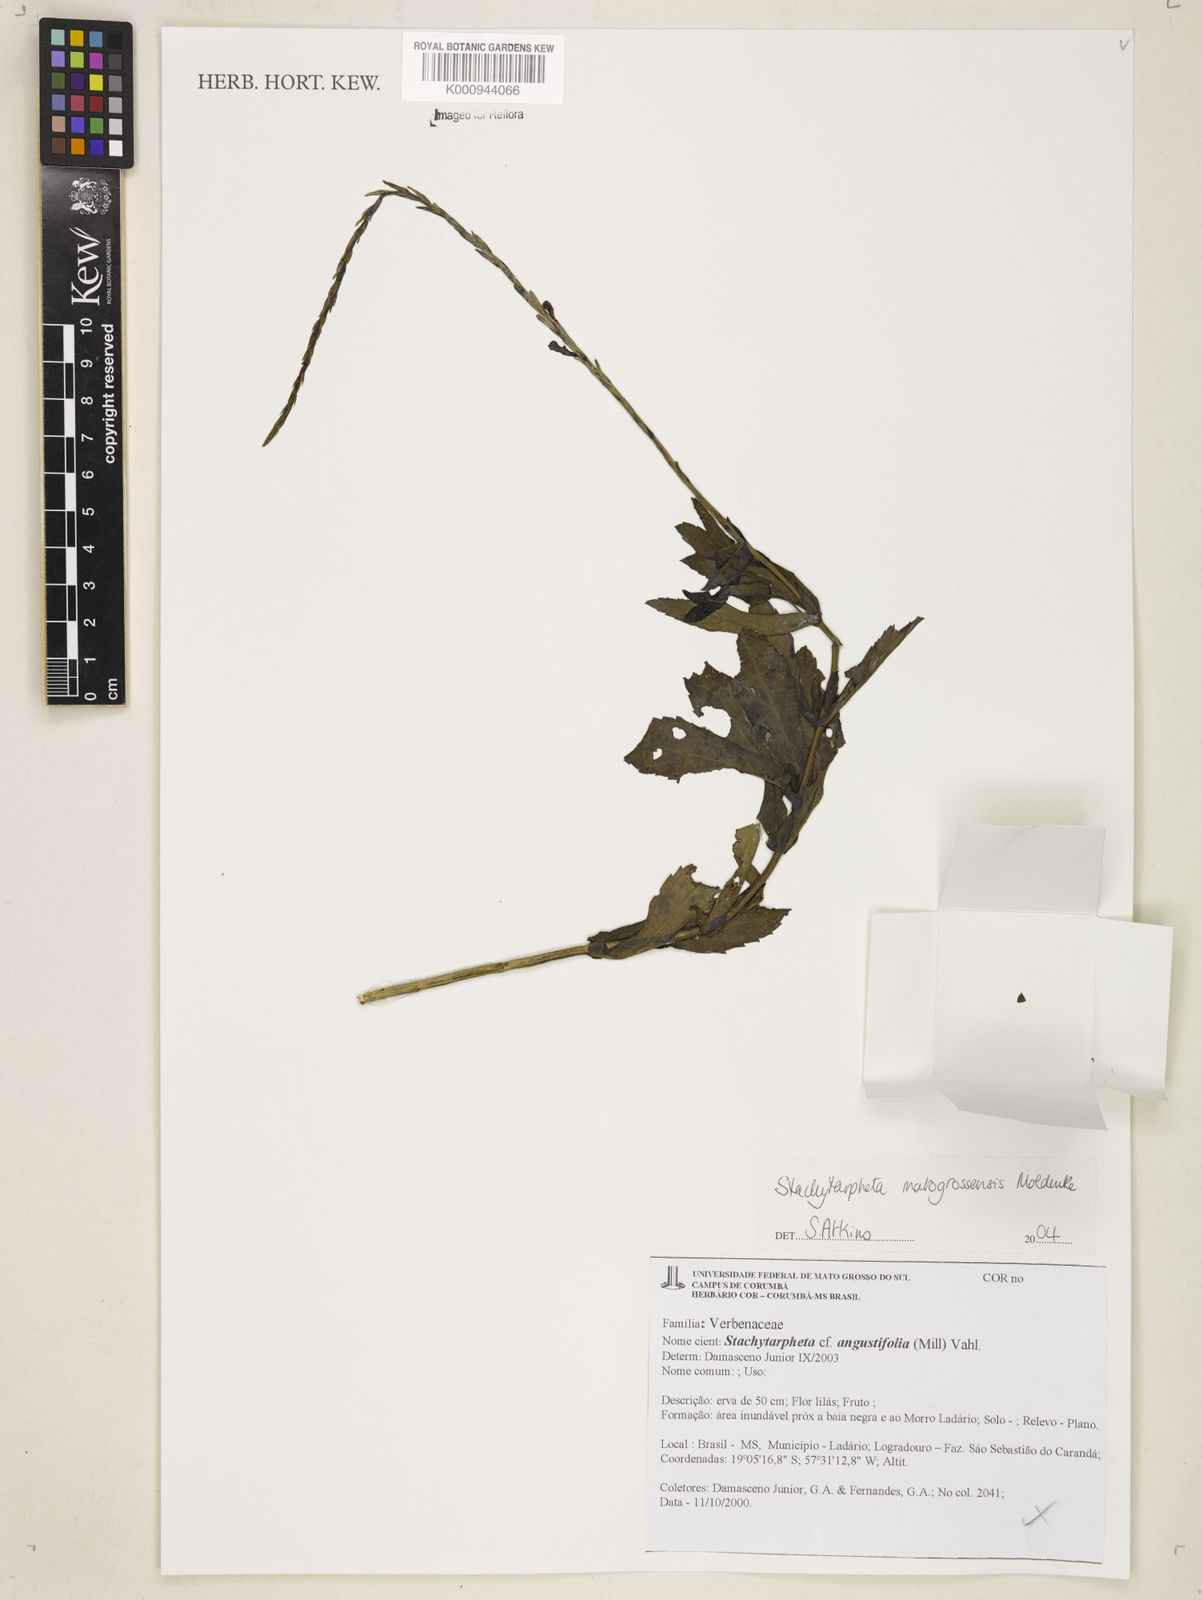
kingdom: Plantae
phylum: Tracheophyta
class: Magnoliopsida
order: Lamiales
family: Verbenaceae
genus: Stachytarpheta
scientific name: Stachytarpheta matogrossensis
